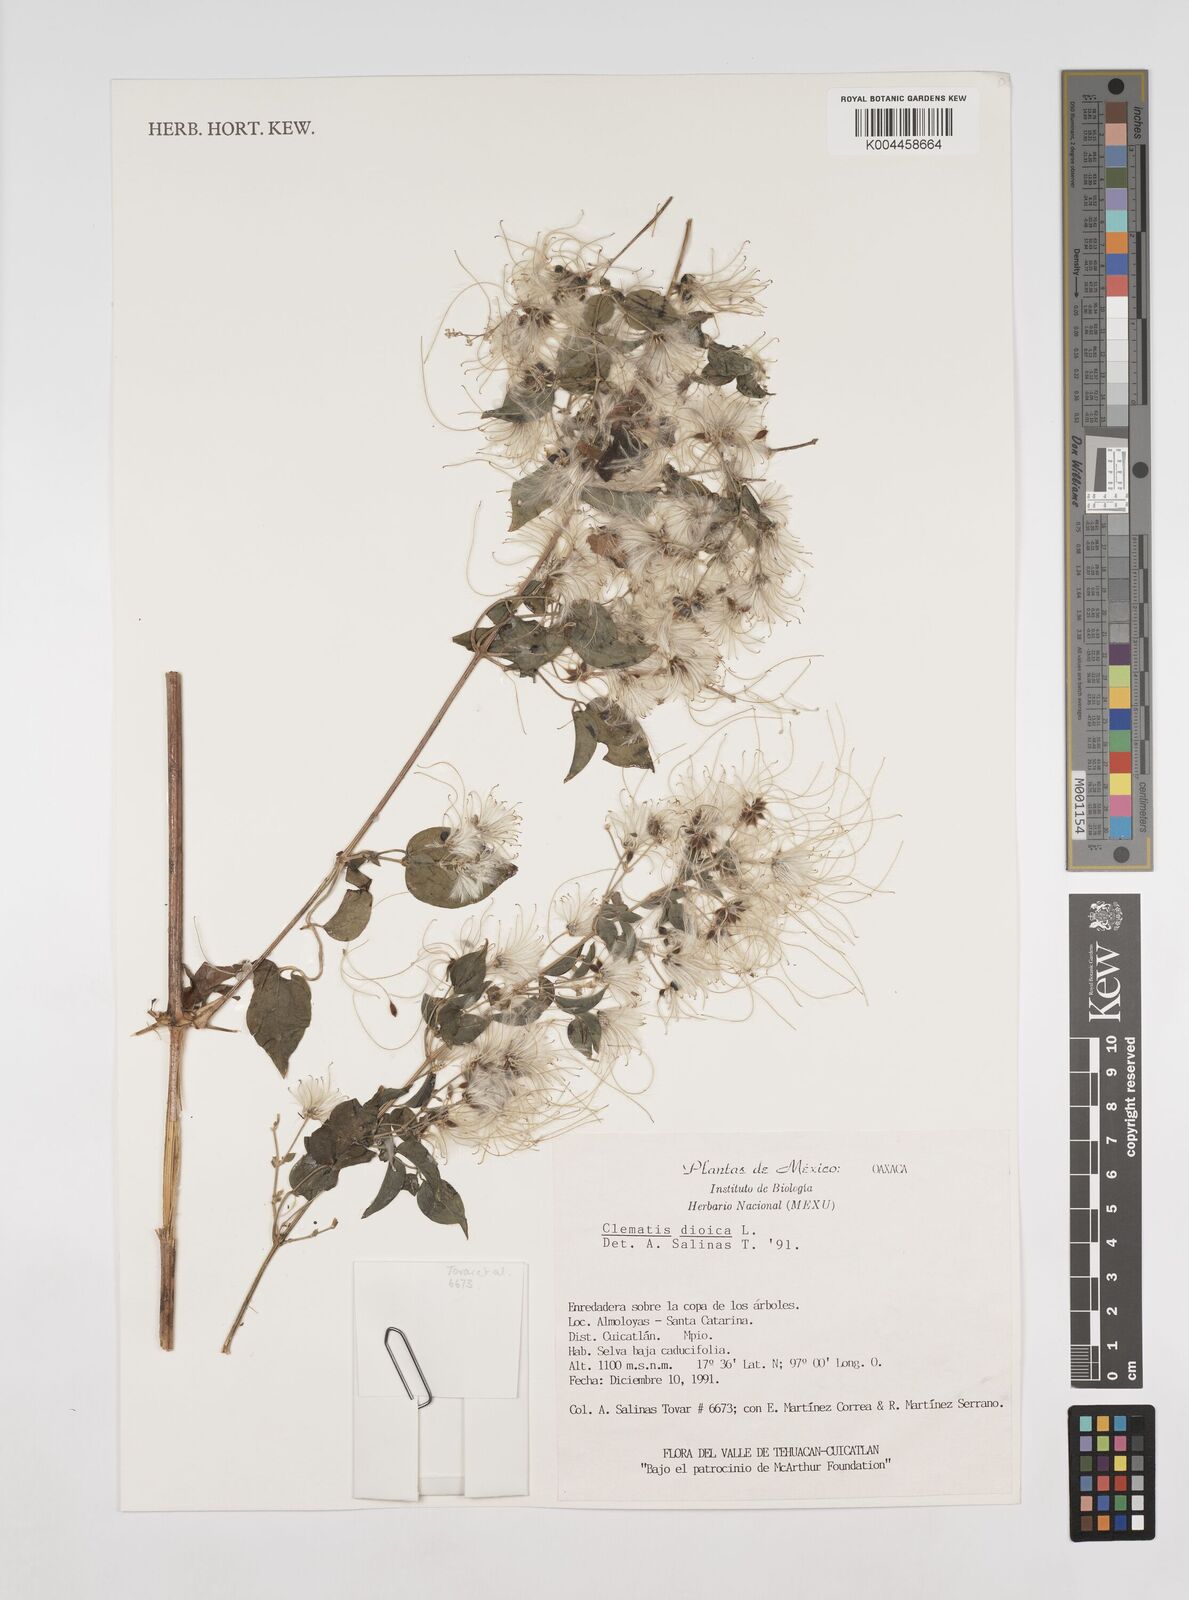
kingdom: Plantae
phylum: Tracheophyta
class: Magnoliopsida
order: Ranunculales
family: Ranunculaceae
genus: Clematis
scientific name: Clematis dioica
